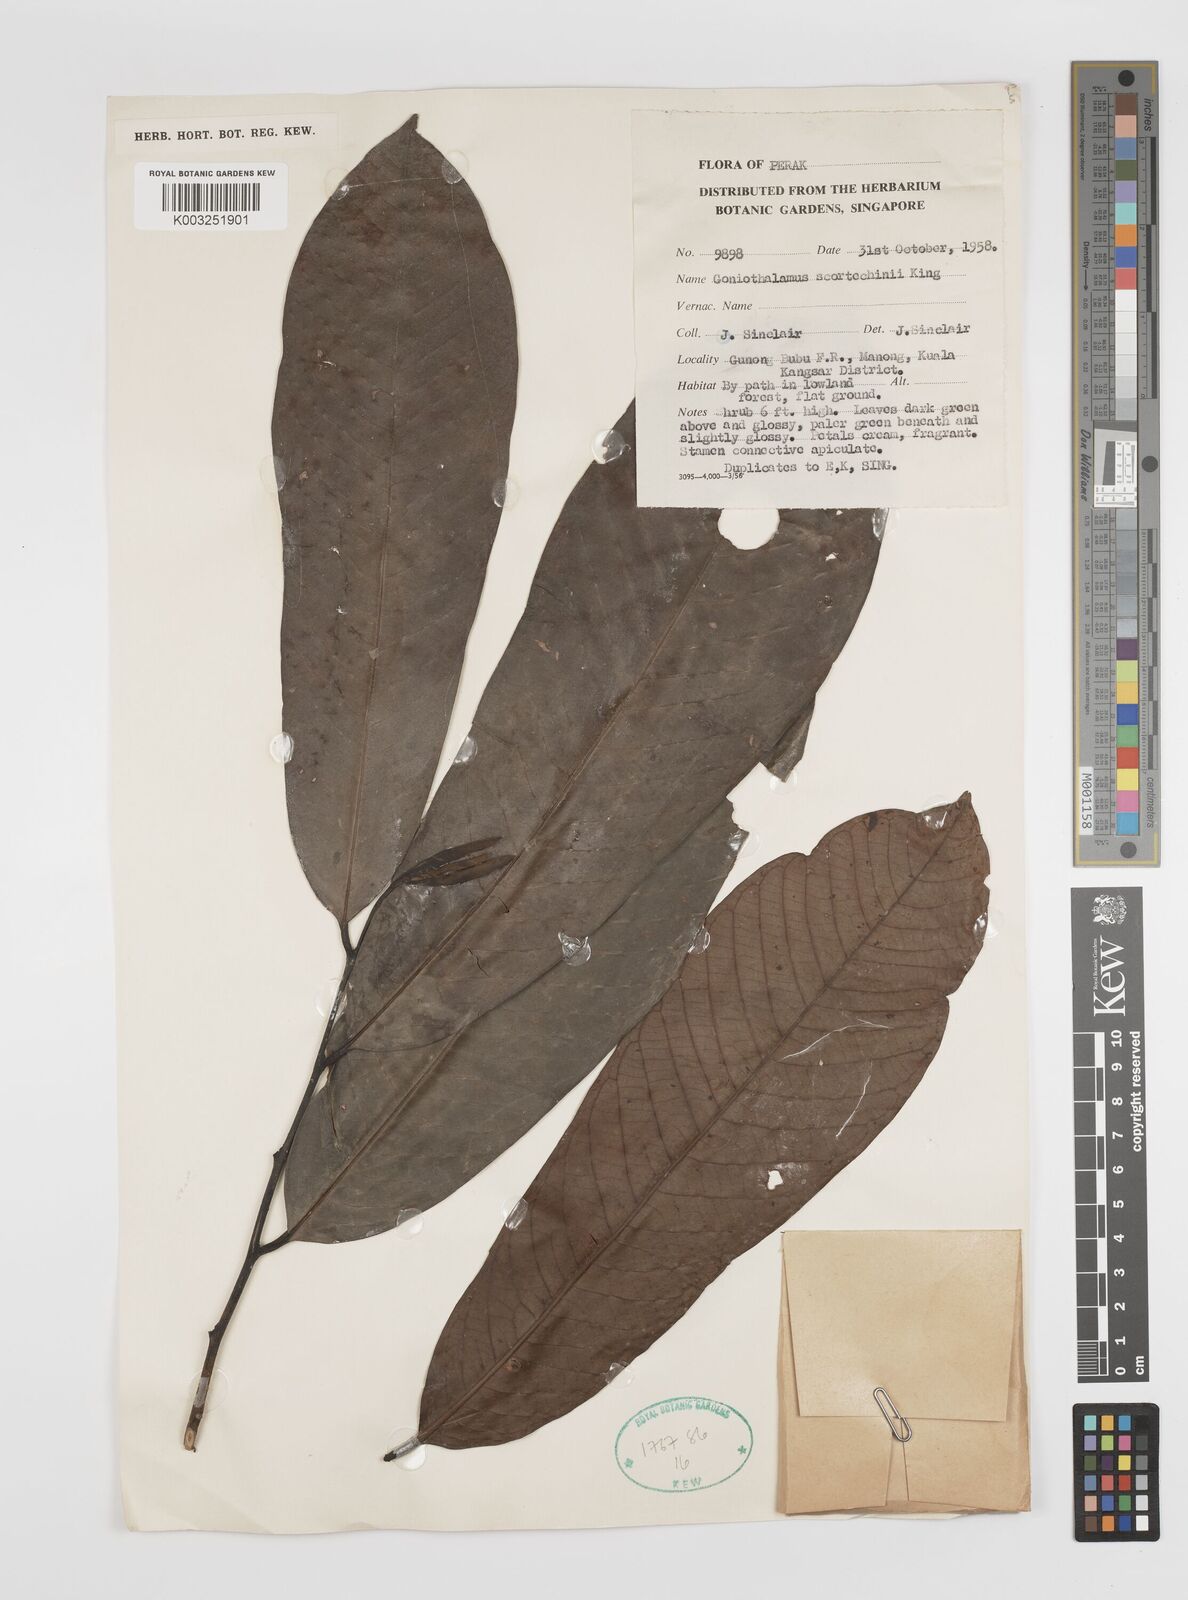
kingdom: Plantae
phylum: Tracheophyta
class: Magnoliopsida
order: Magnoliales
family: Annonaceae
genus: Goniothalamus
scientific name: Goniothalamus scortechinii
